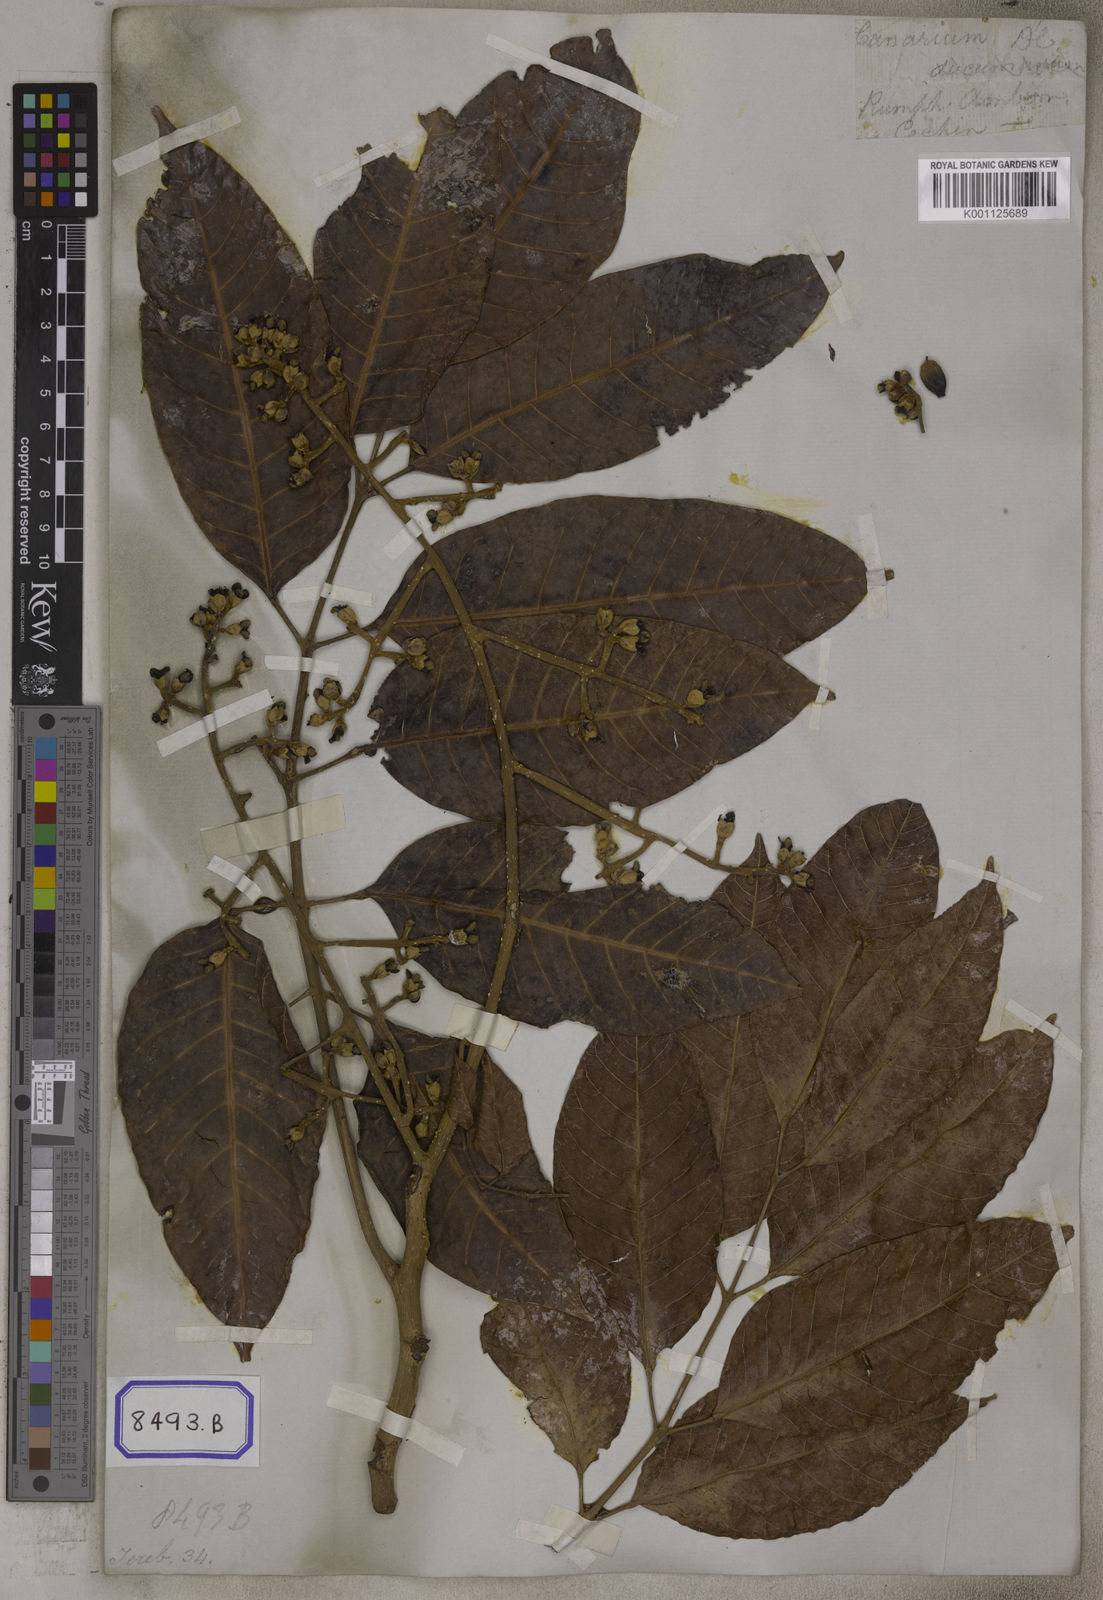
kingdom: Plantae
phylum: Tracheophyta
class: Magnoliopsida
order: Sapindales
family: Burseraceae
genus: Canarium
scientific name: Canarium indicum
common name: Canarium-nut
